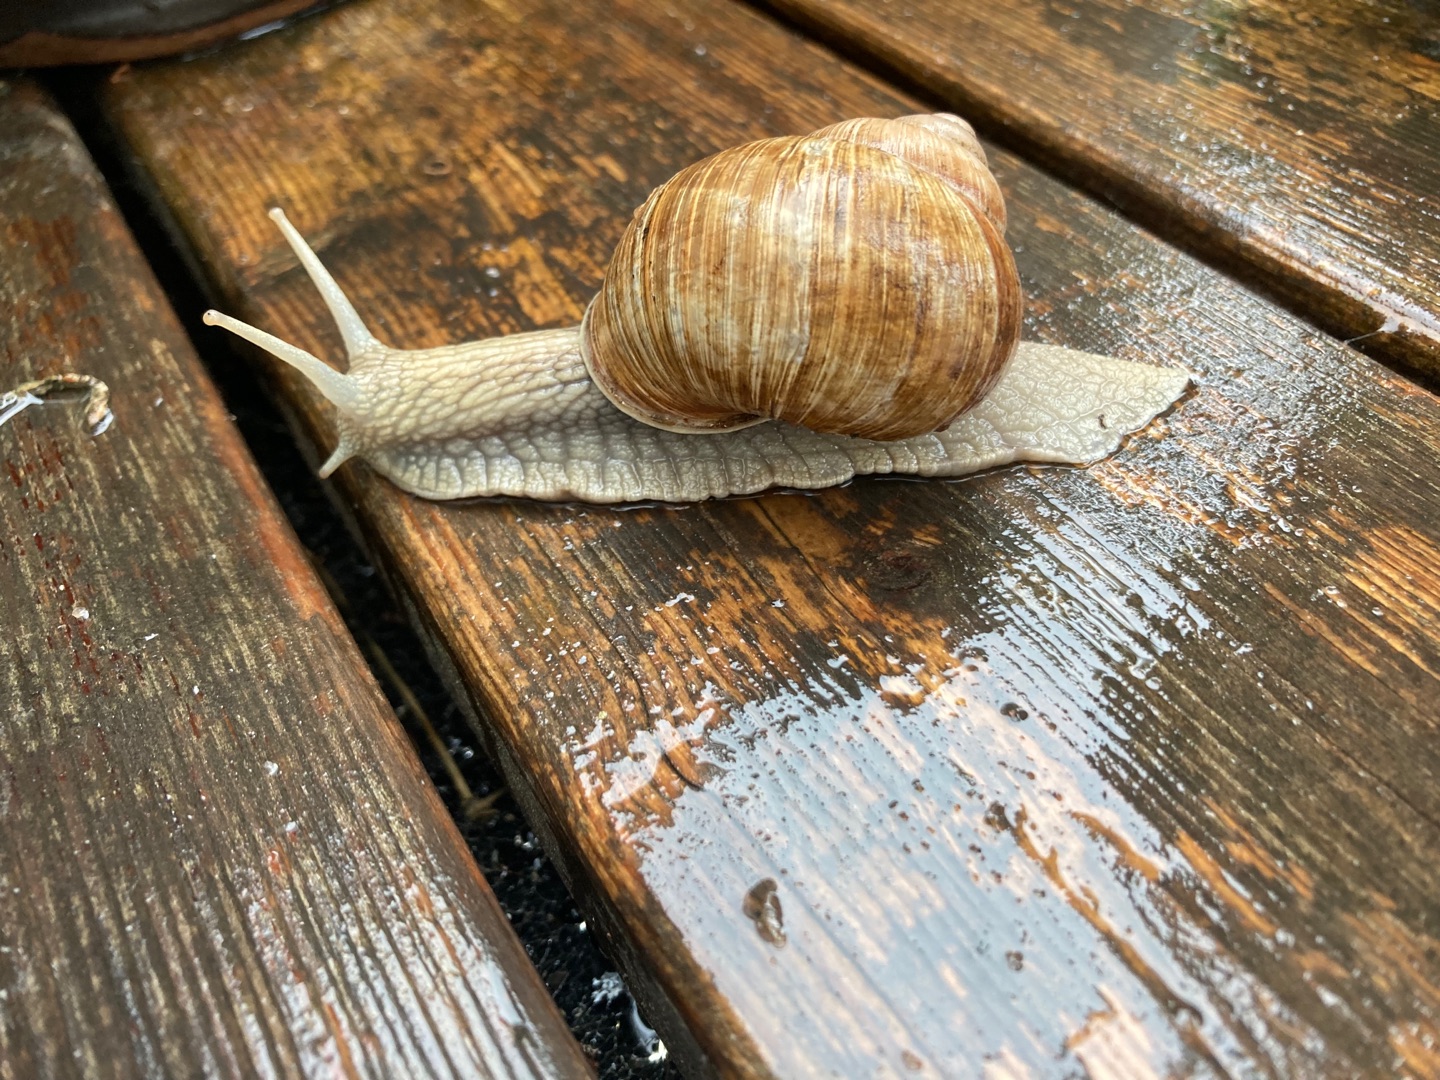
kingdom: Animalia
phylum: Mollusca
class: Gastropoda
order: Stylommatophora
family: Helicidae
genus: Helix
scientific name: Helix pomatia
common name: Vinbjergsnegl
